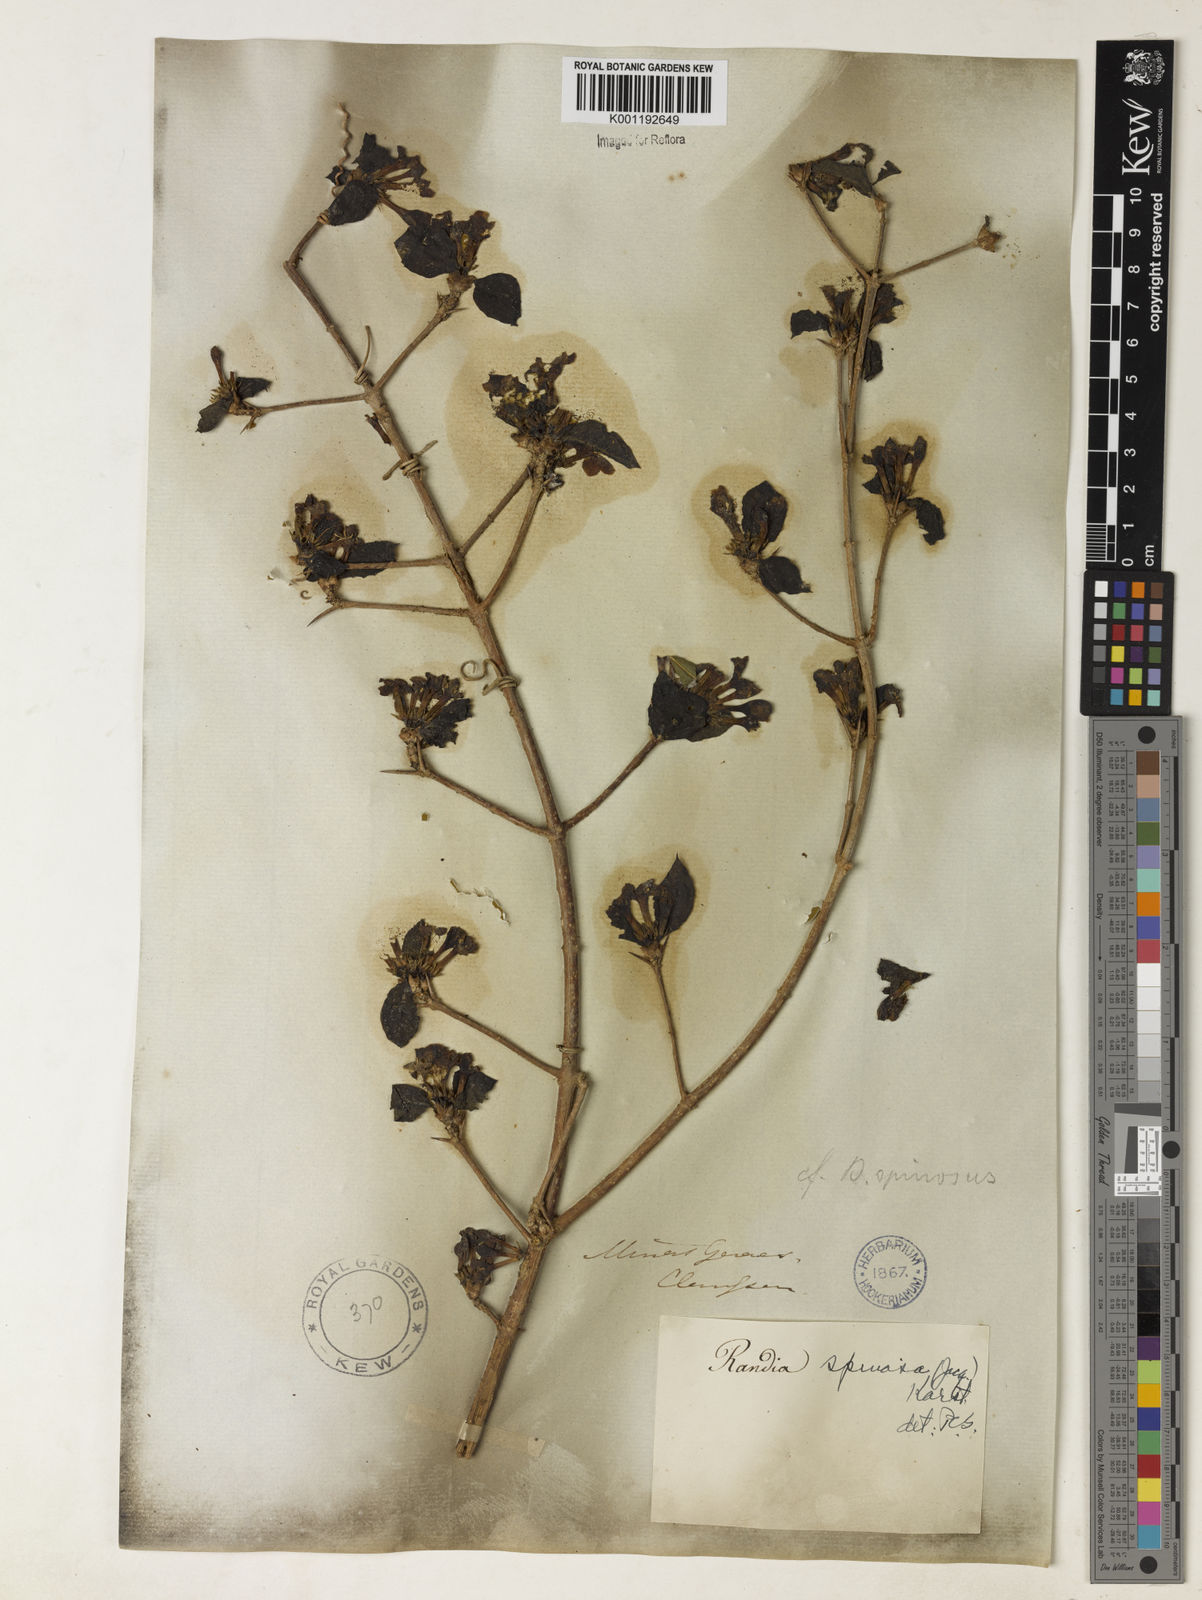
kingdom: Plantae
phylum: Tracheophyta
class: Magnoliopsida
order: Gentianales
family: Rubiaceae
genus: Randia
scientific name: Randia armata
